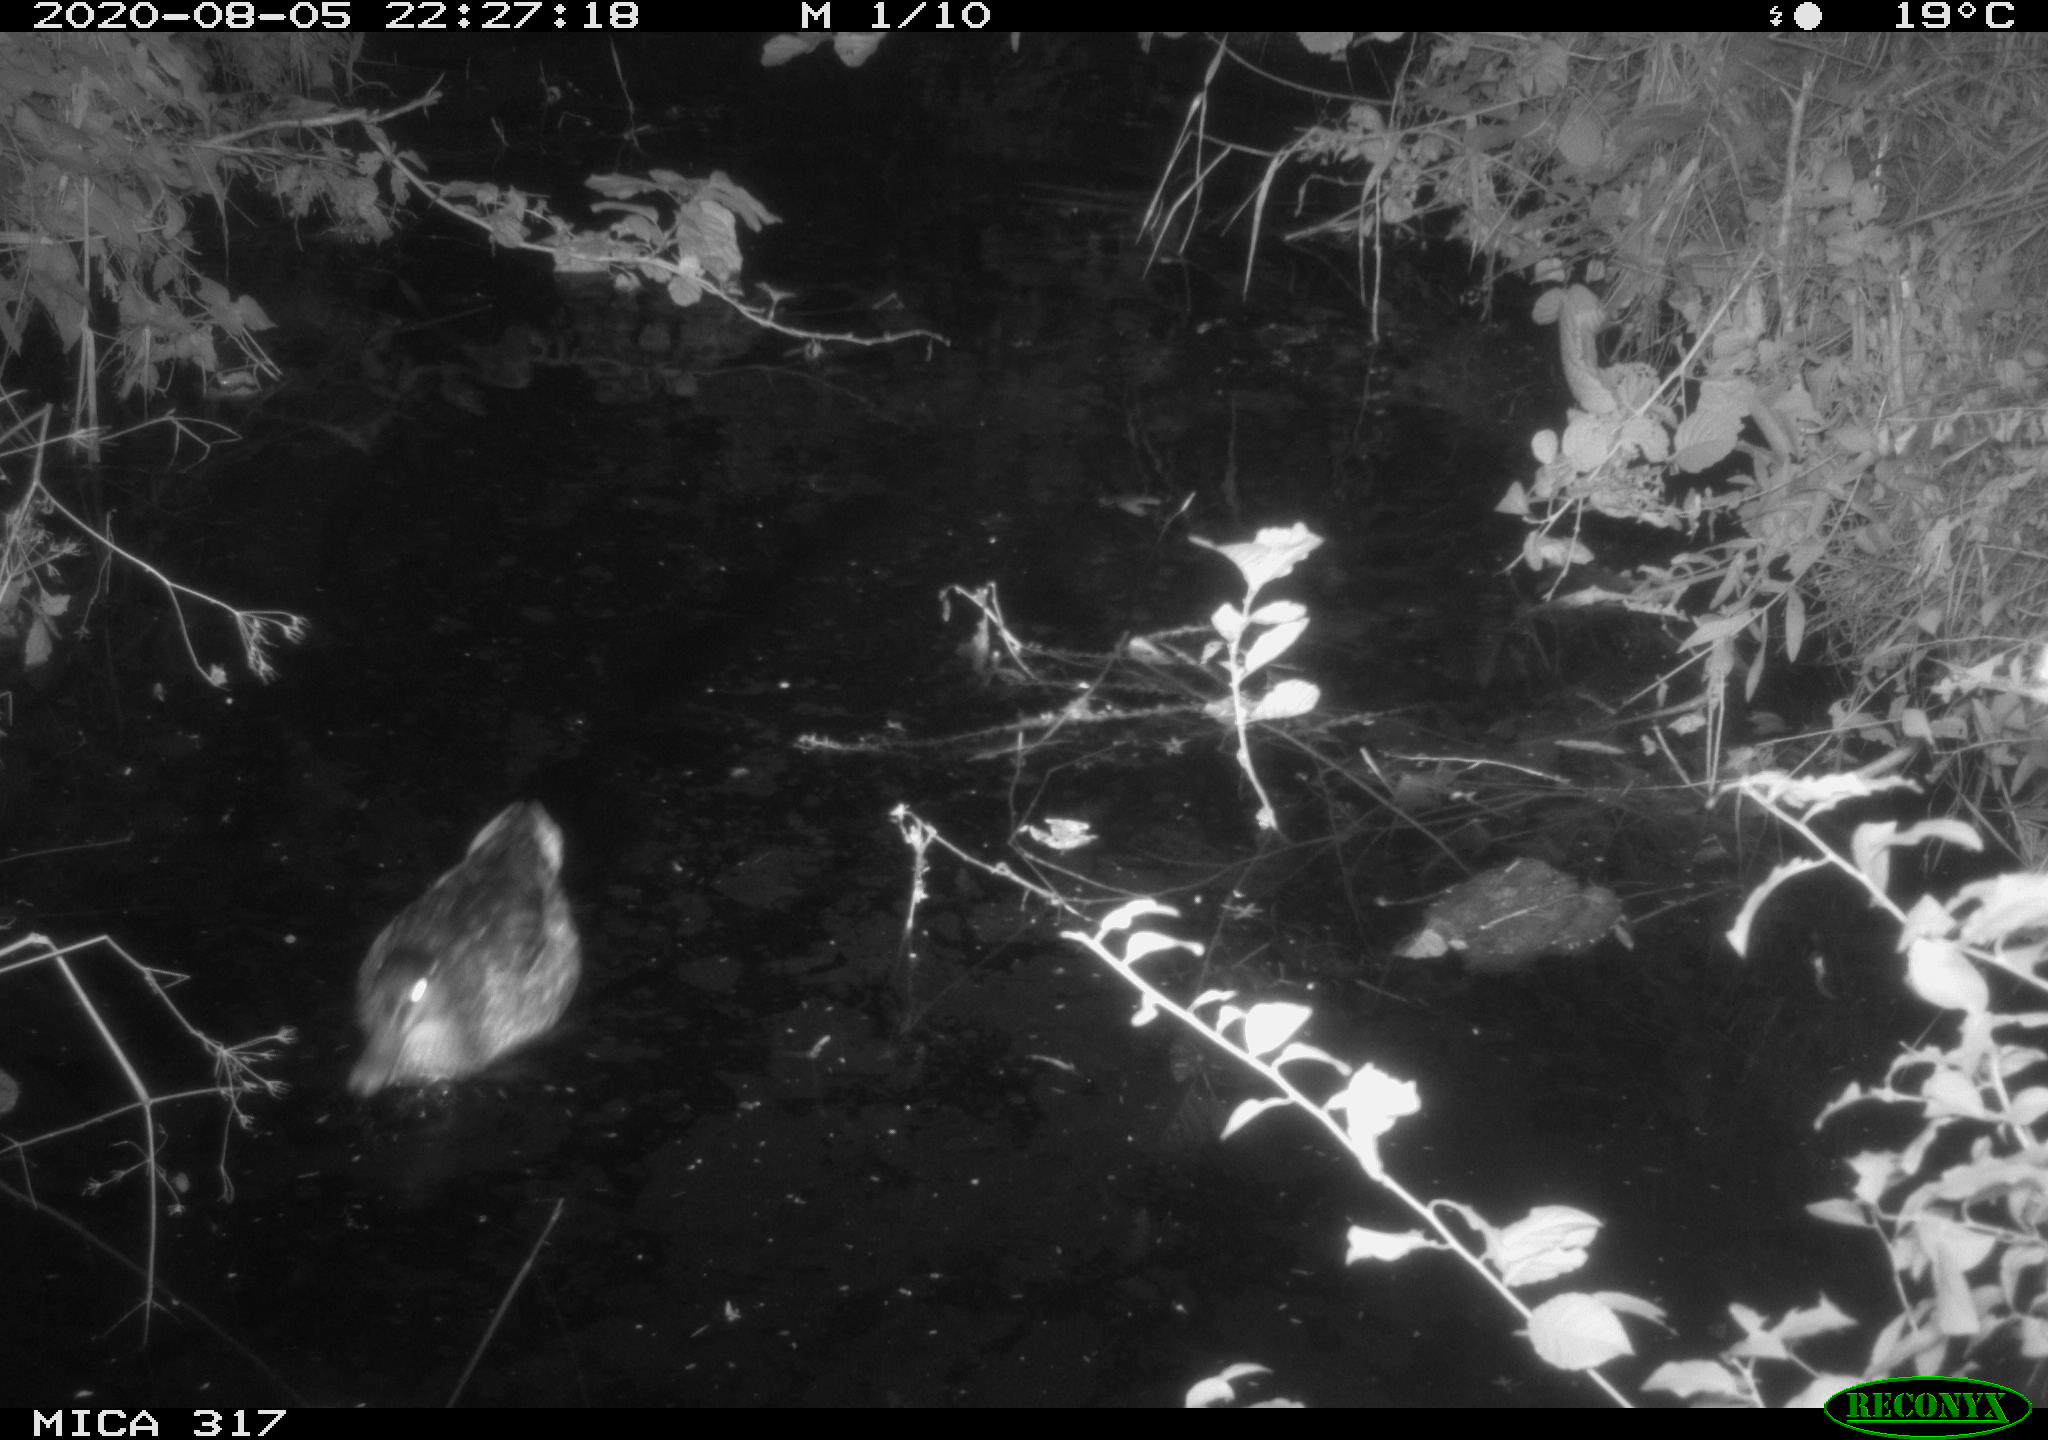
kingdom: Animalia
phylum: Chordata
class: Aves
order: Anseriformes
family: Anatidae
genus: Anas
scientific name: Anas platyrhynchos
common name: Mallard
